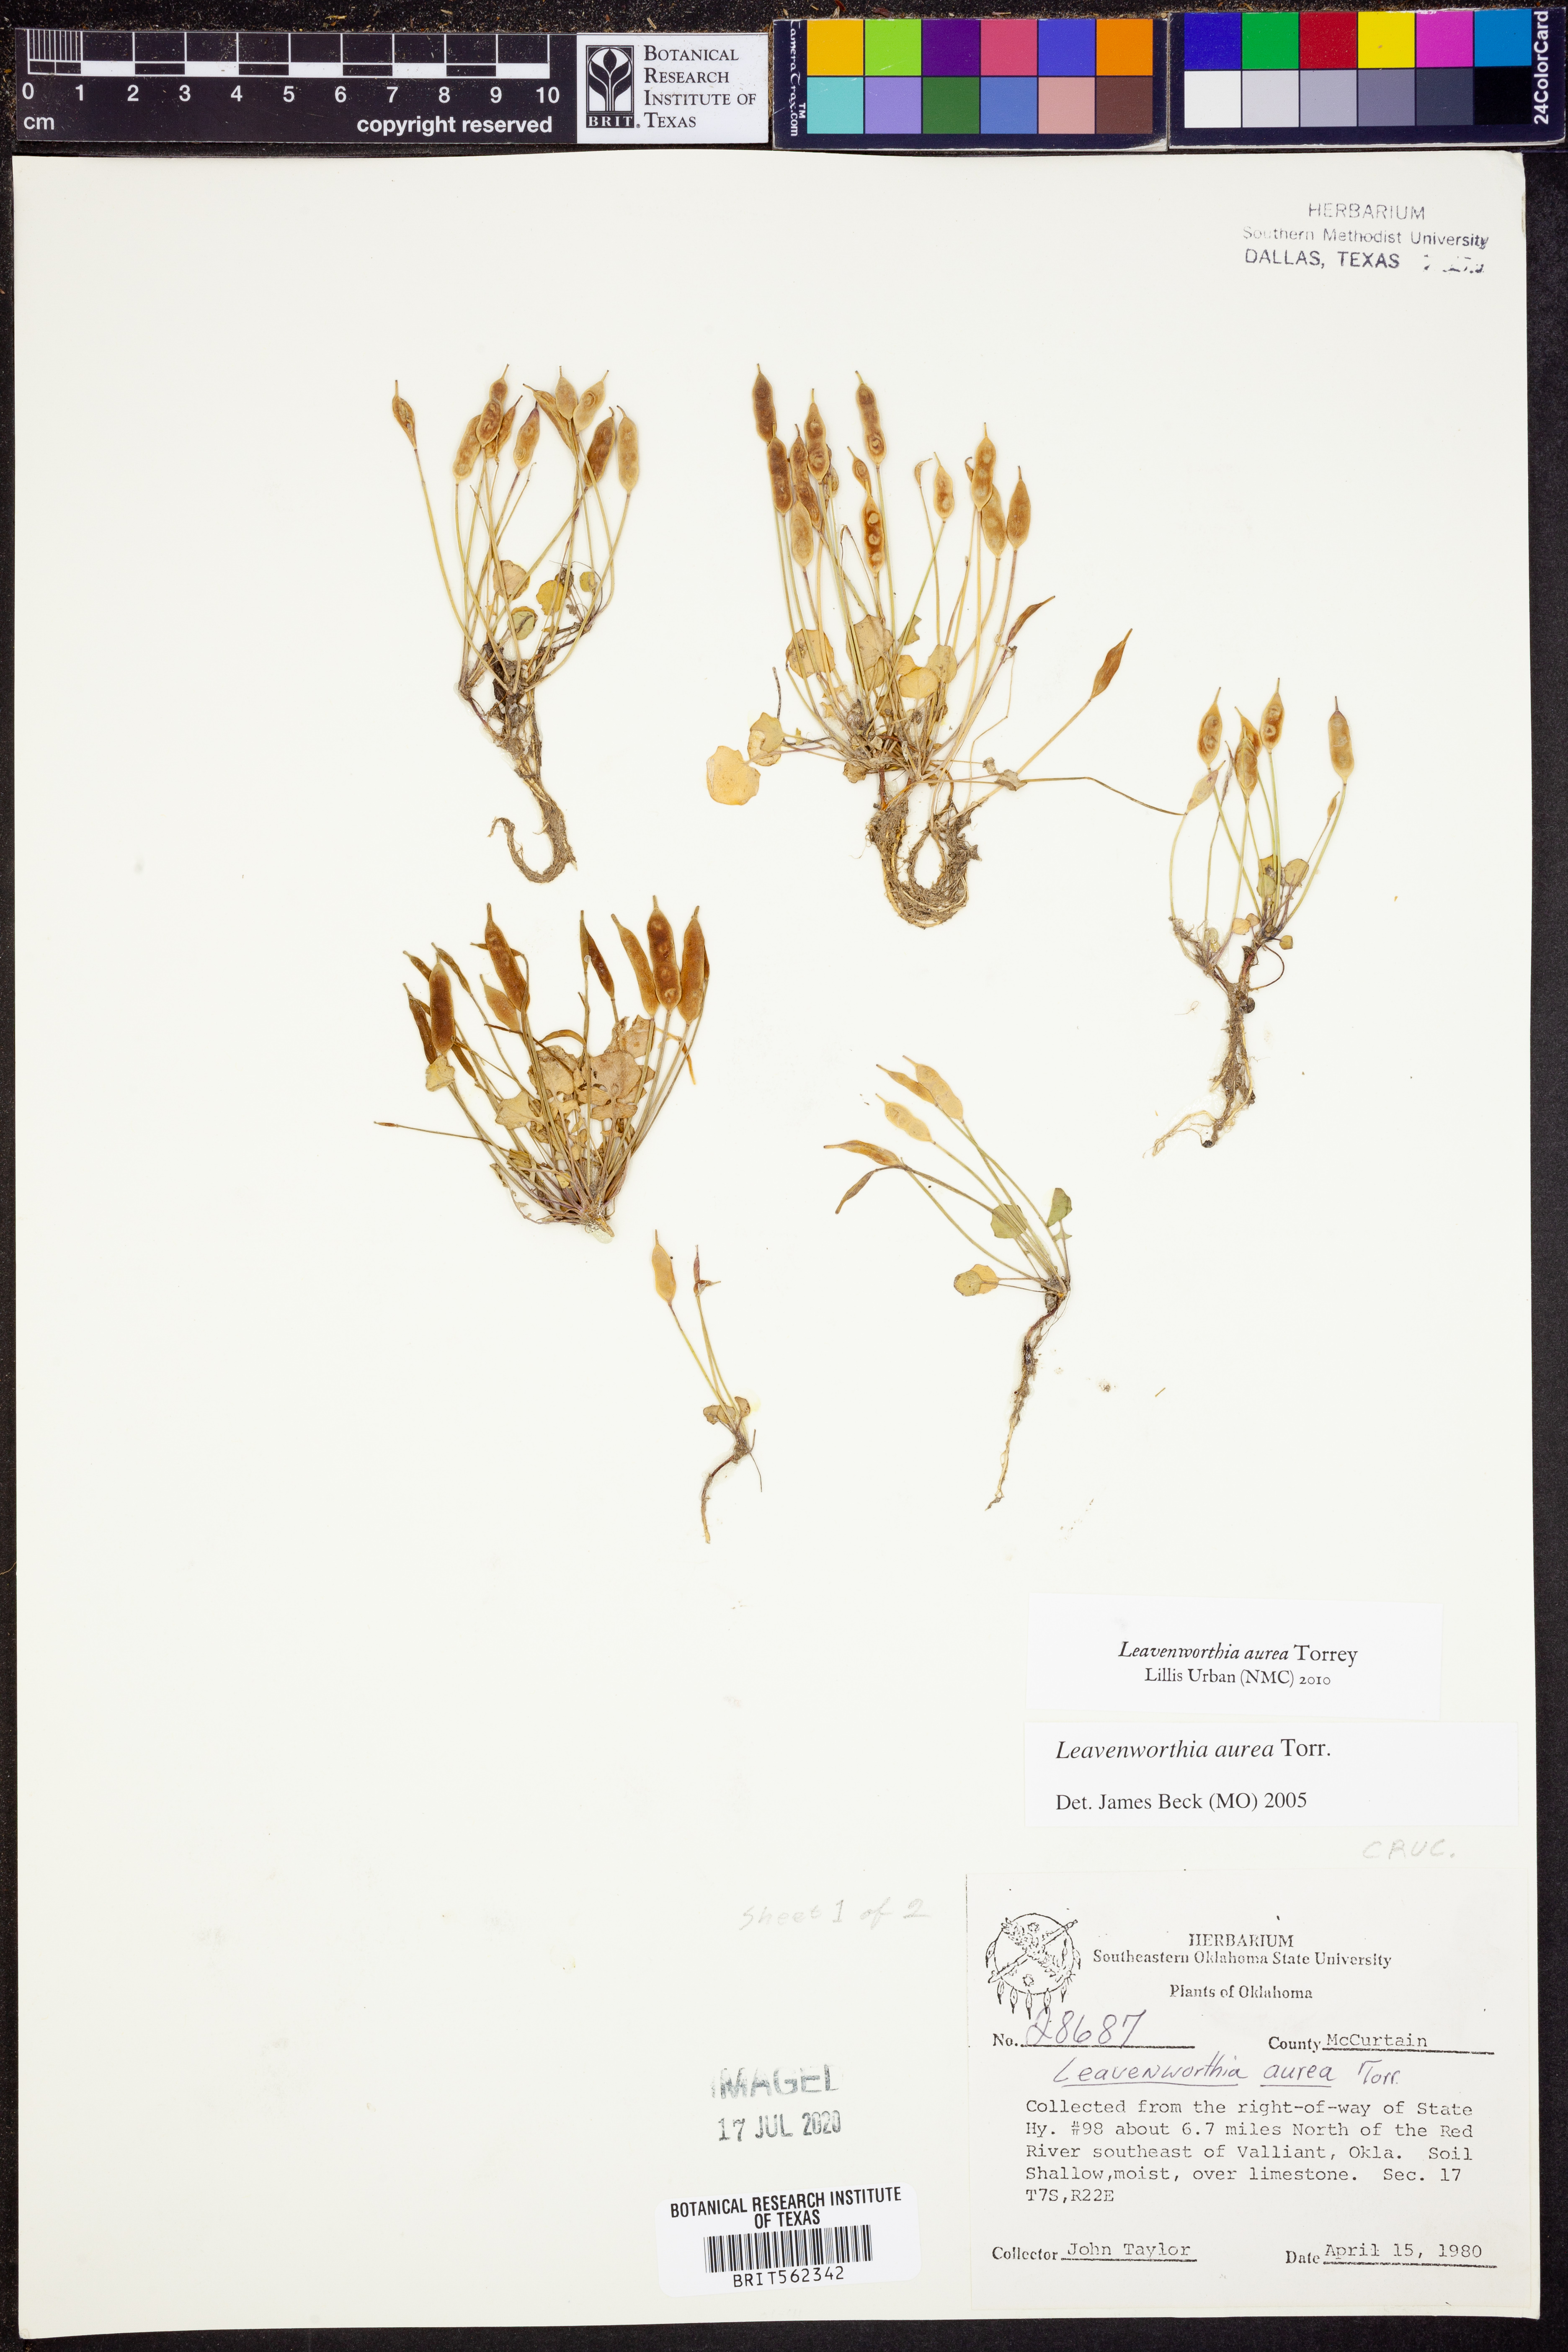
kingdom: Plantae
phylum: Tracheophyta
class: Magnoliopsida
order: Brassicales
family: Brassicaceae
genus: Leavenworthia
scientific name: Leavenworthia aurea
